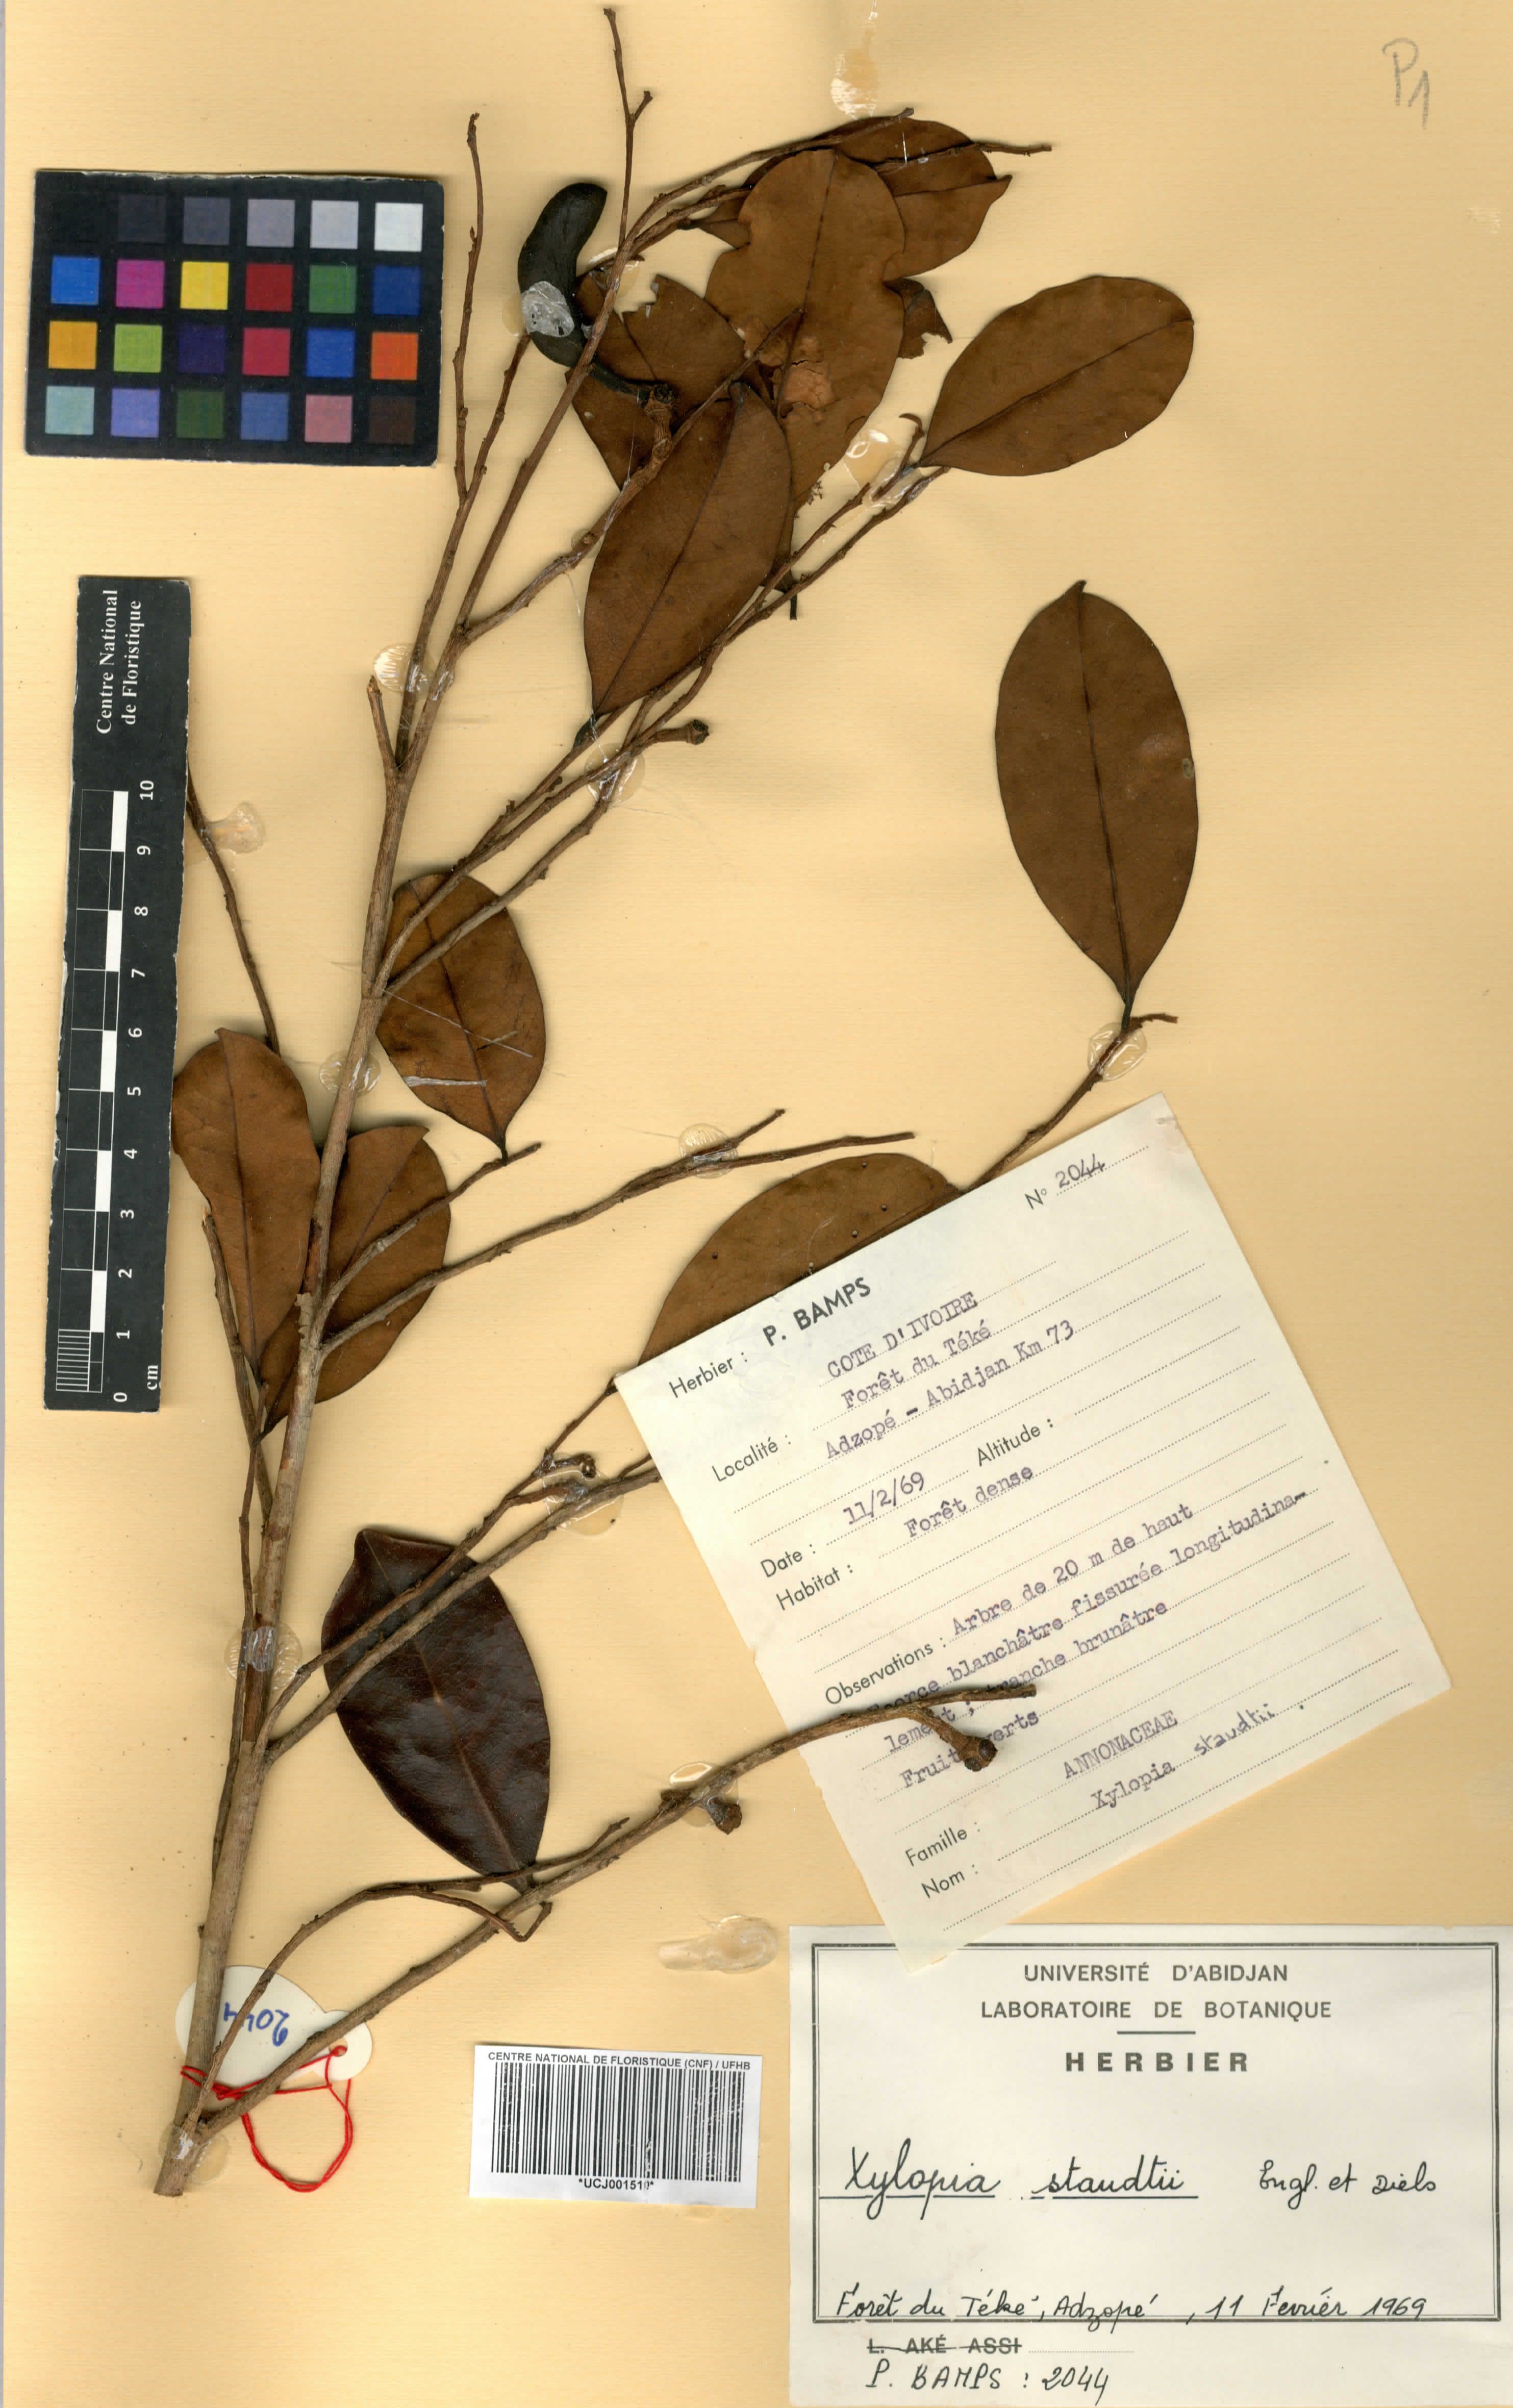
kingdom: Plantae
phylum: Tracheophyta
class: Magnoliopsida
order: Magnoliales
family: Annonaceae
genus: Xylopia
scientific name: Xylopia staudtii
